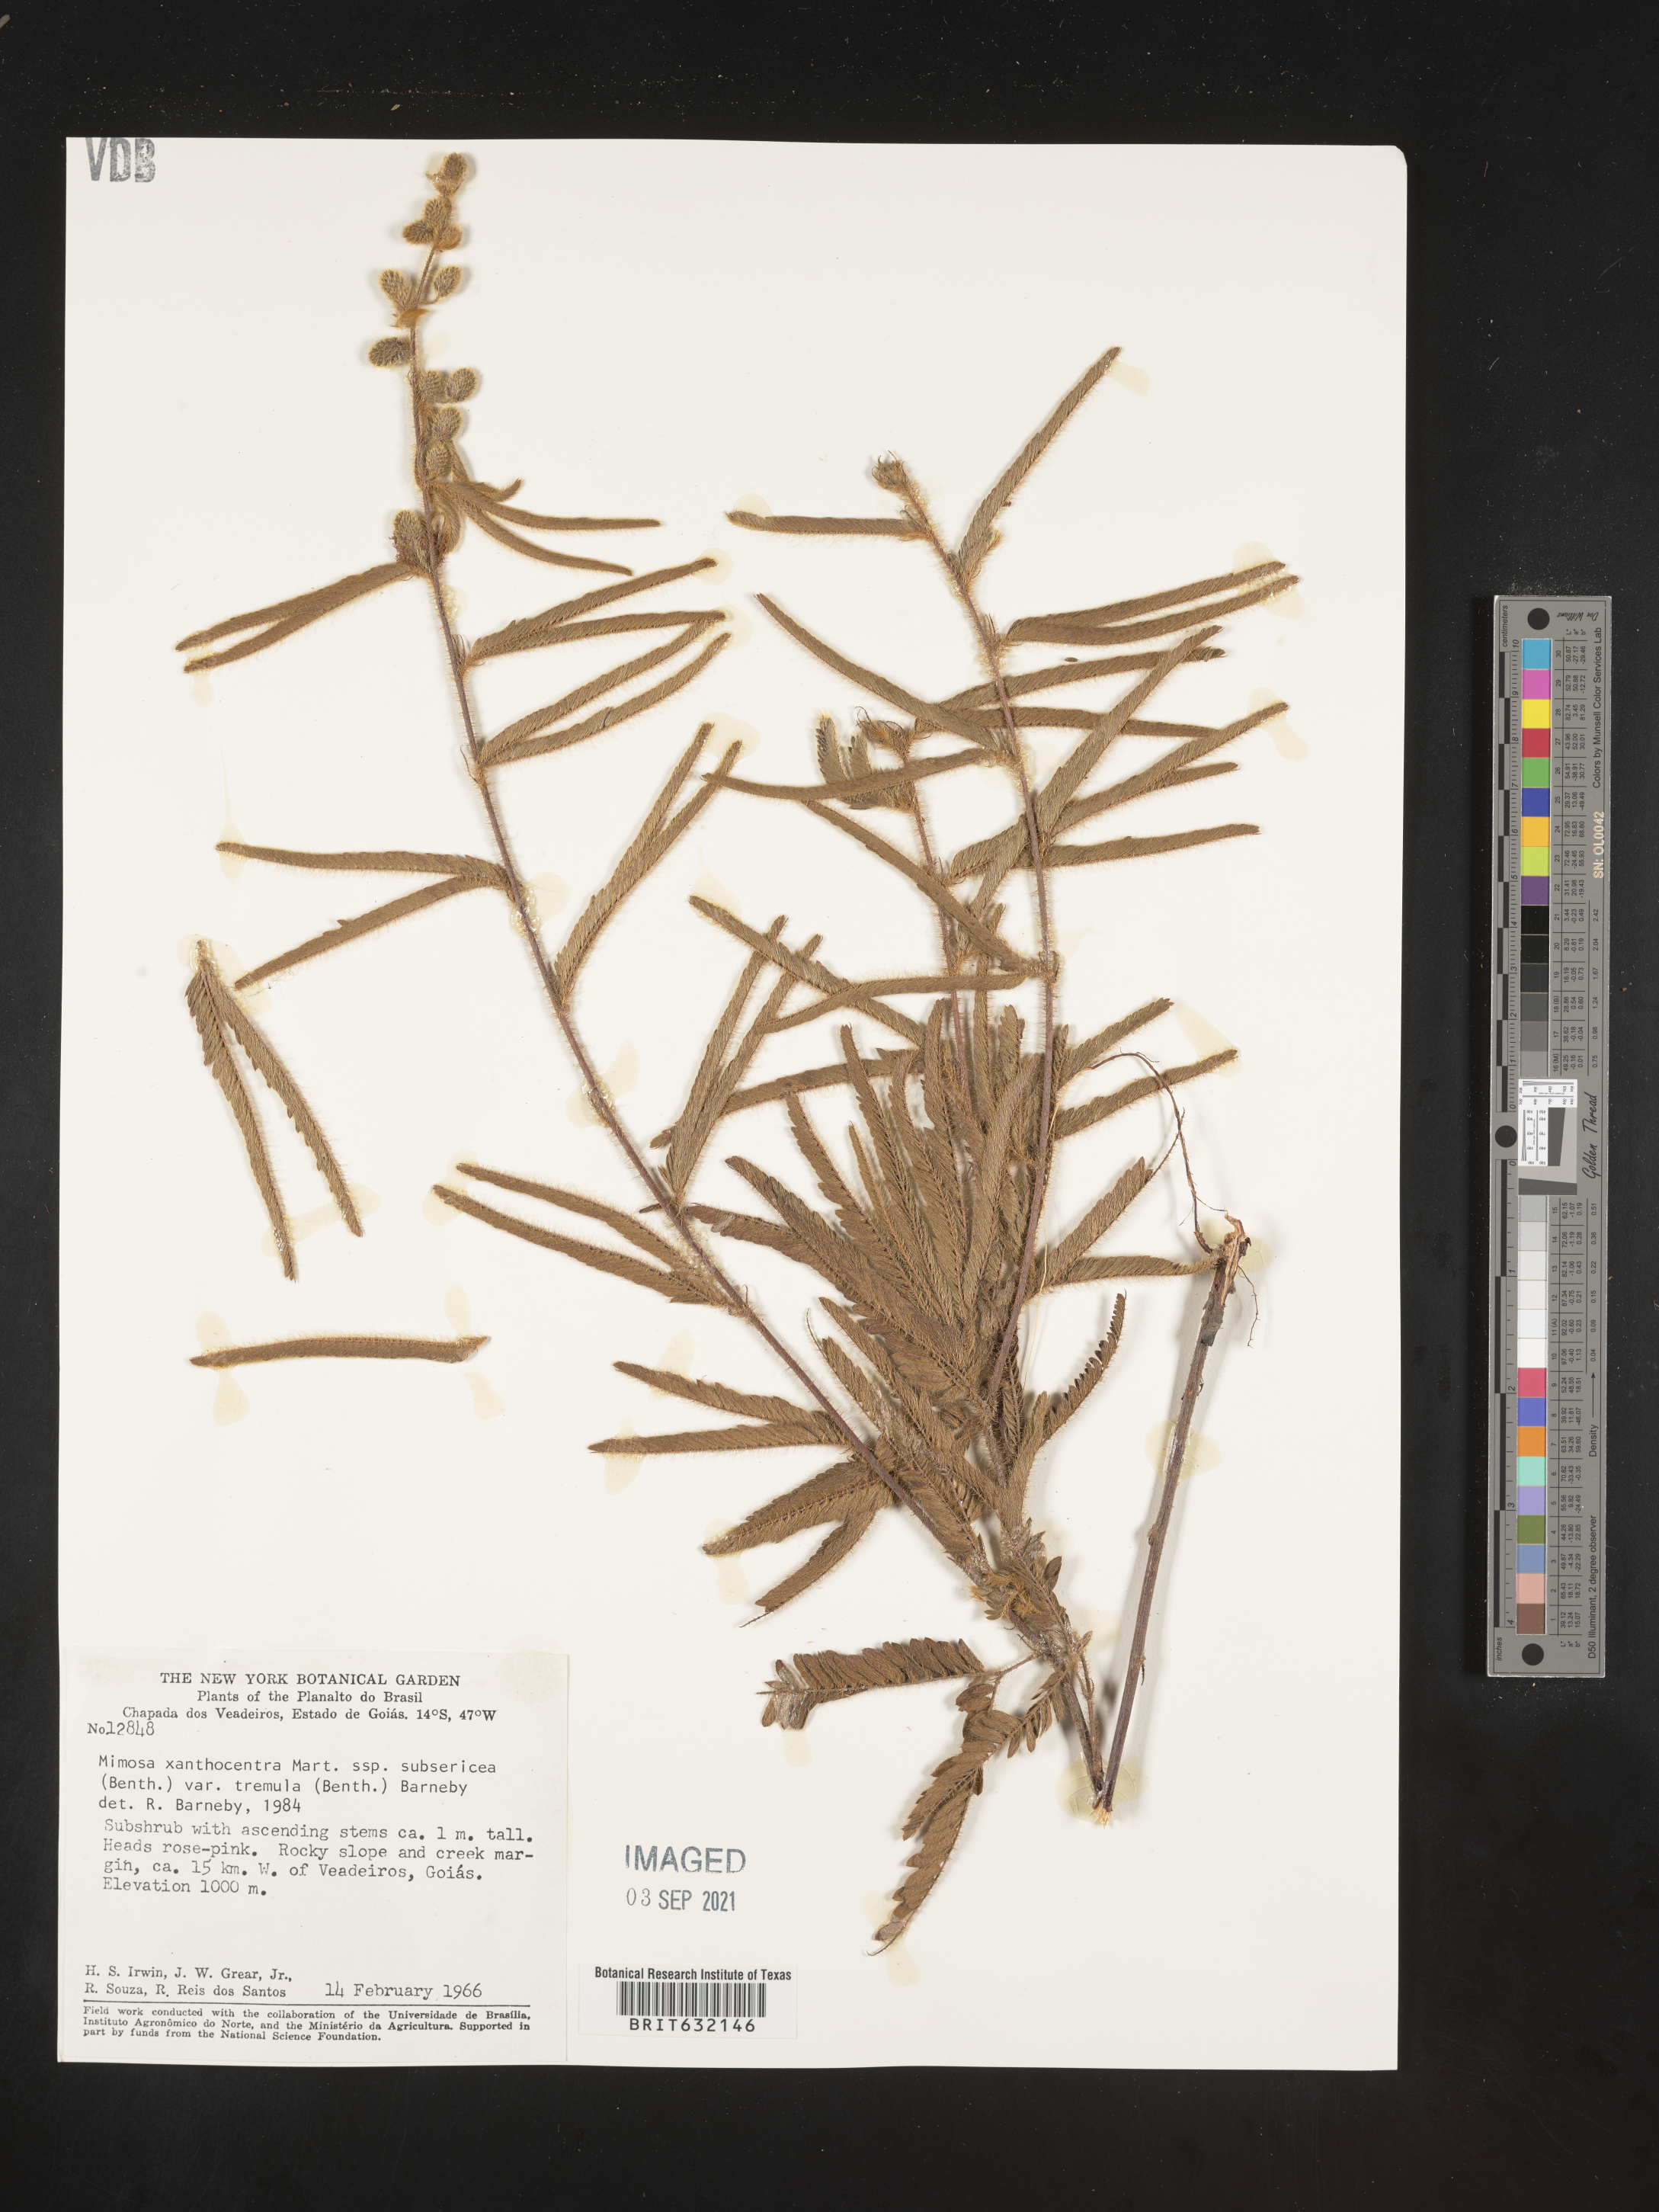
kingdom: Plantae
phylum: Tracheophyta
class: Magnoliopsida
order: Fabales
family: Fabaceae
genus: Mimosa
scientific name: Mimosa
